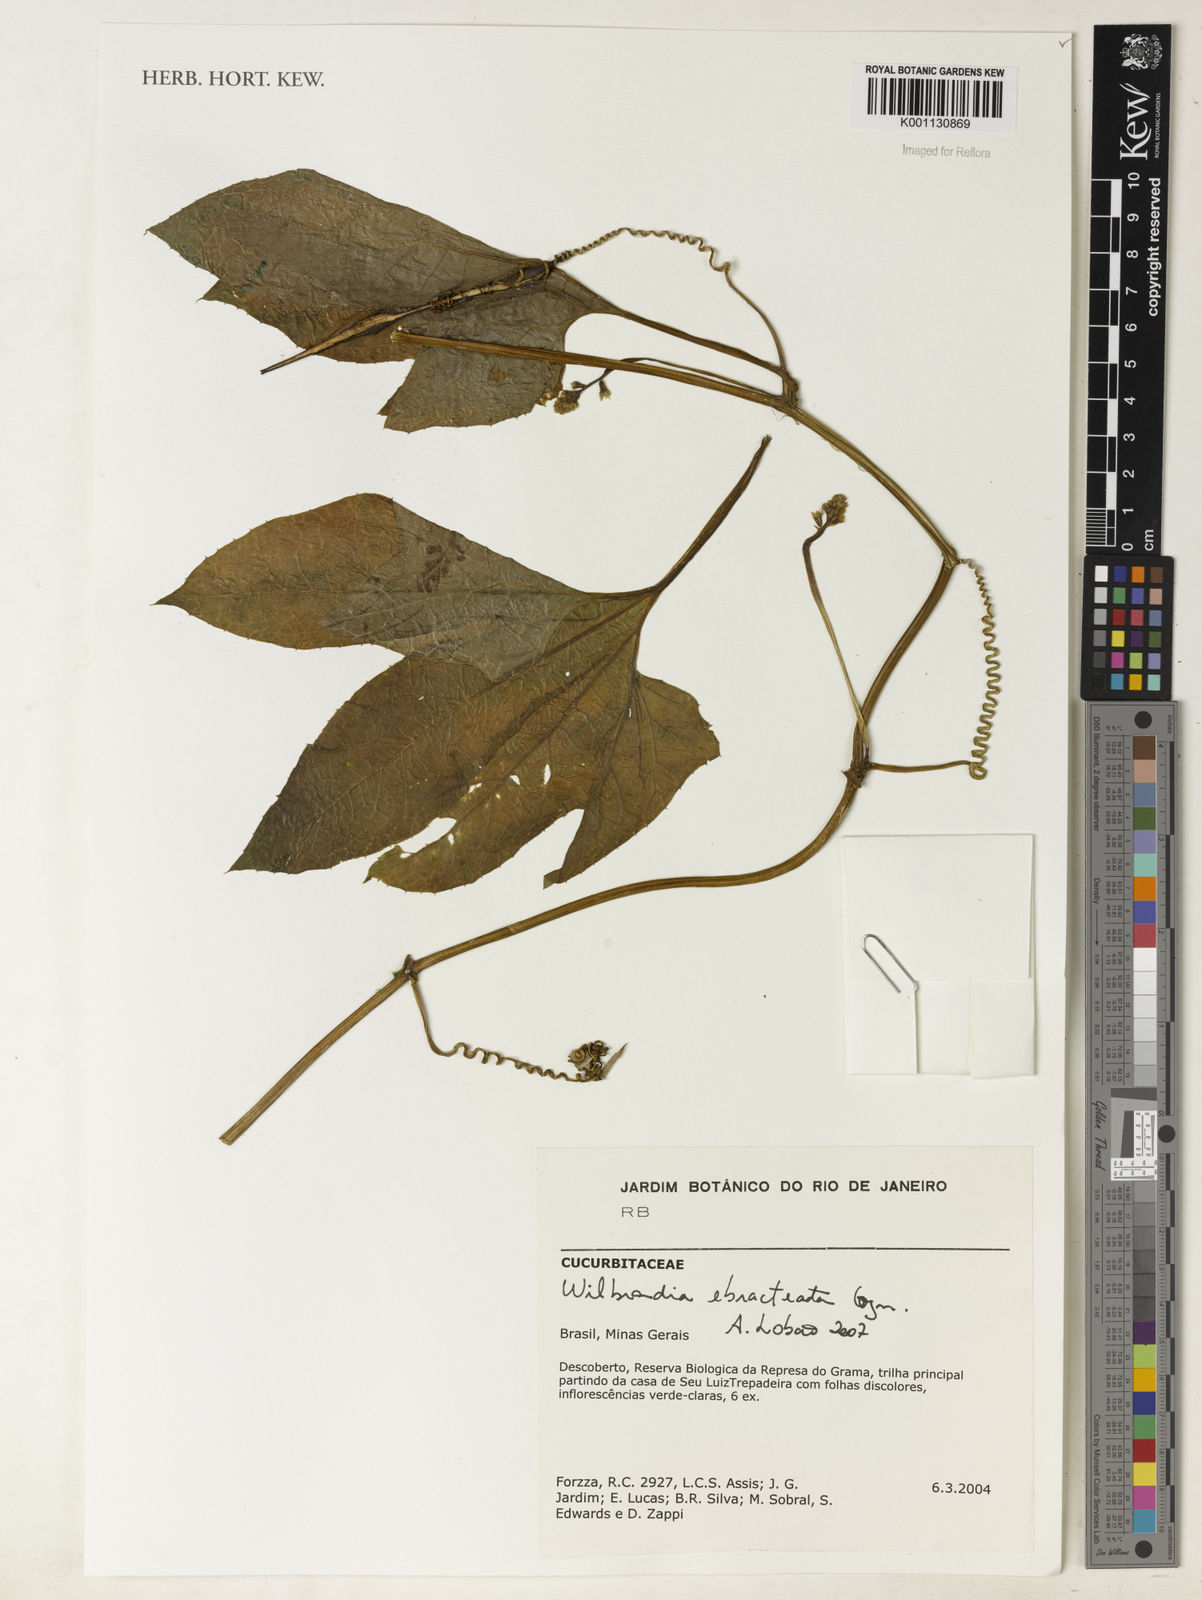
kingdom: Plantae
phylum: Tracheophyta
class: Magnoliopsida
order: Cucurbitales
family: Cucurbitaceae
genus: Wilbrandia
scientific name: Wilbrandia ebracteata
